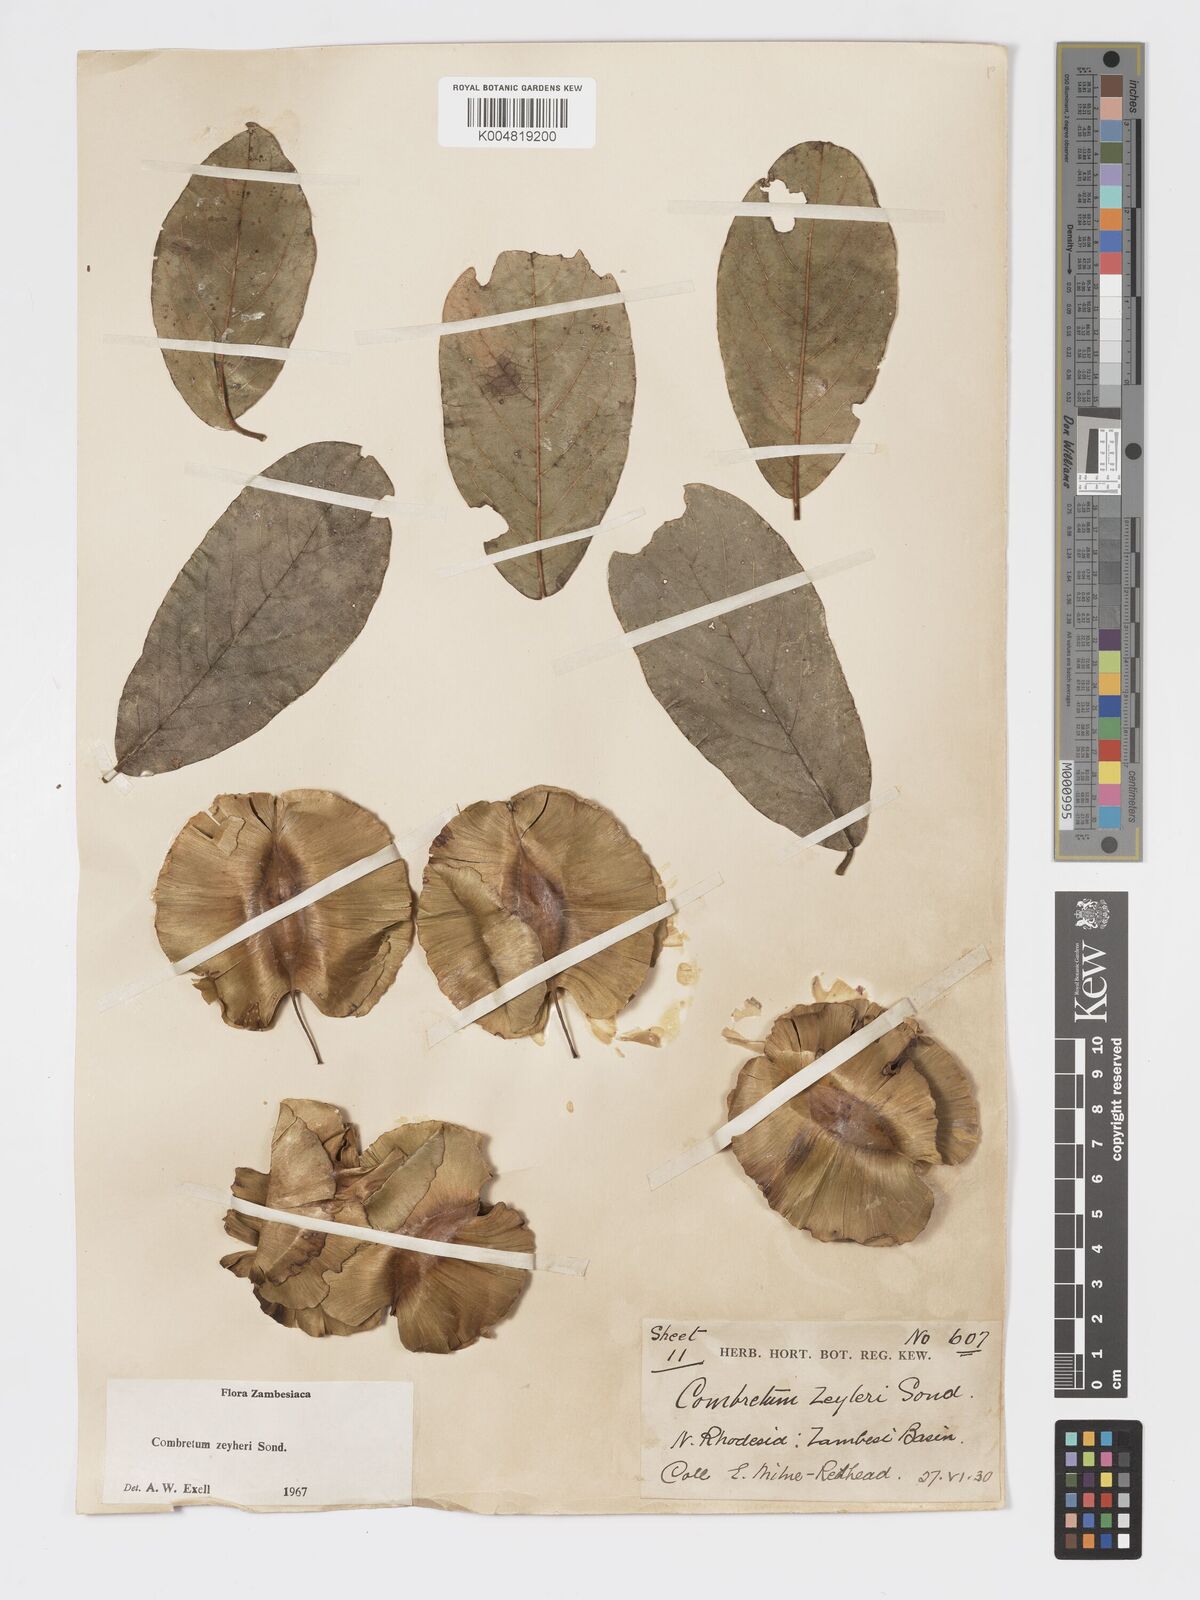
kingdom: Plantae
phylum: Tracheophyta
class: Magnoliopsida
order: Myrtales
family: Combretaceae
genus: Combretum
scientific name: Combretum zeyheri
